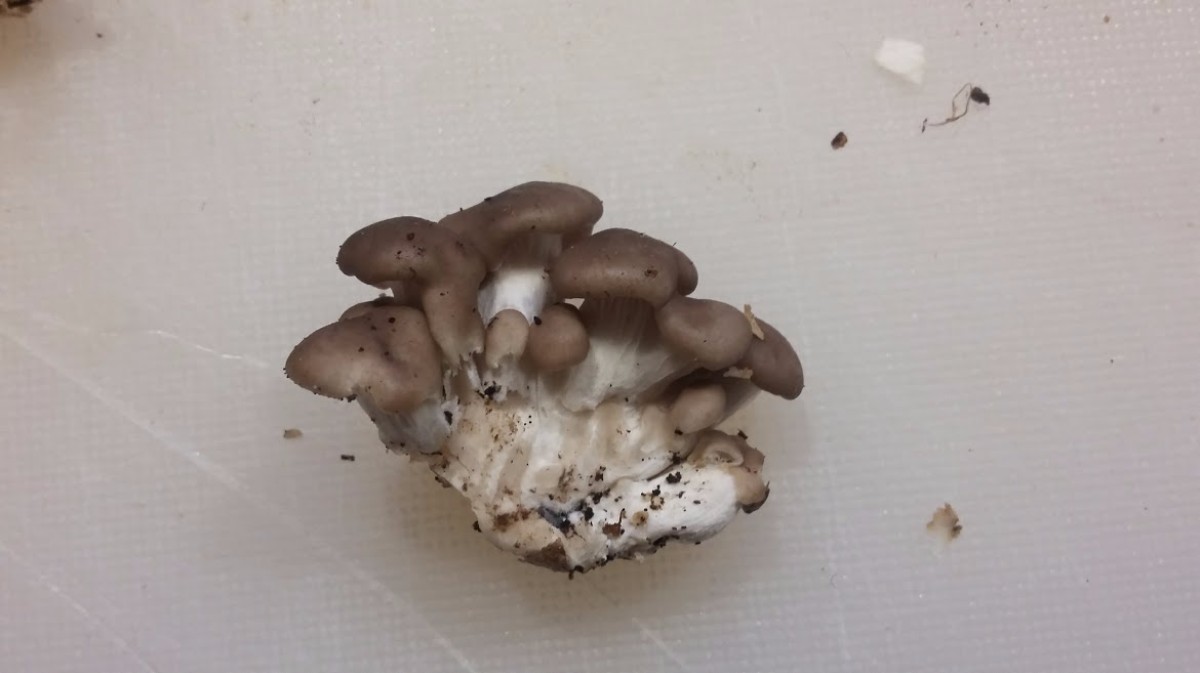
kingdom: Fungi
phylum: Basidiomycota
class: Agaricomycetes
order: Agaricales
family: Pleurotaceae
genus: Pleurotus
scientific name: Pleurotus ostreatus
